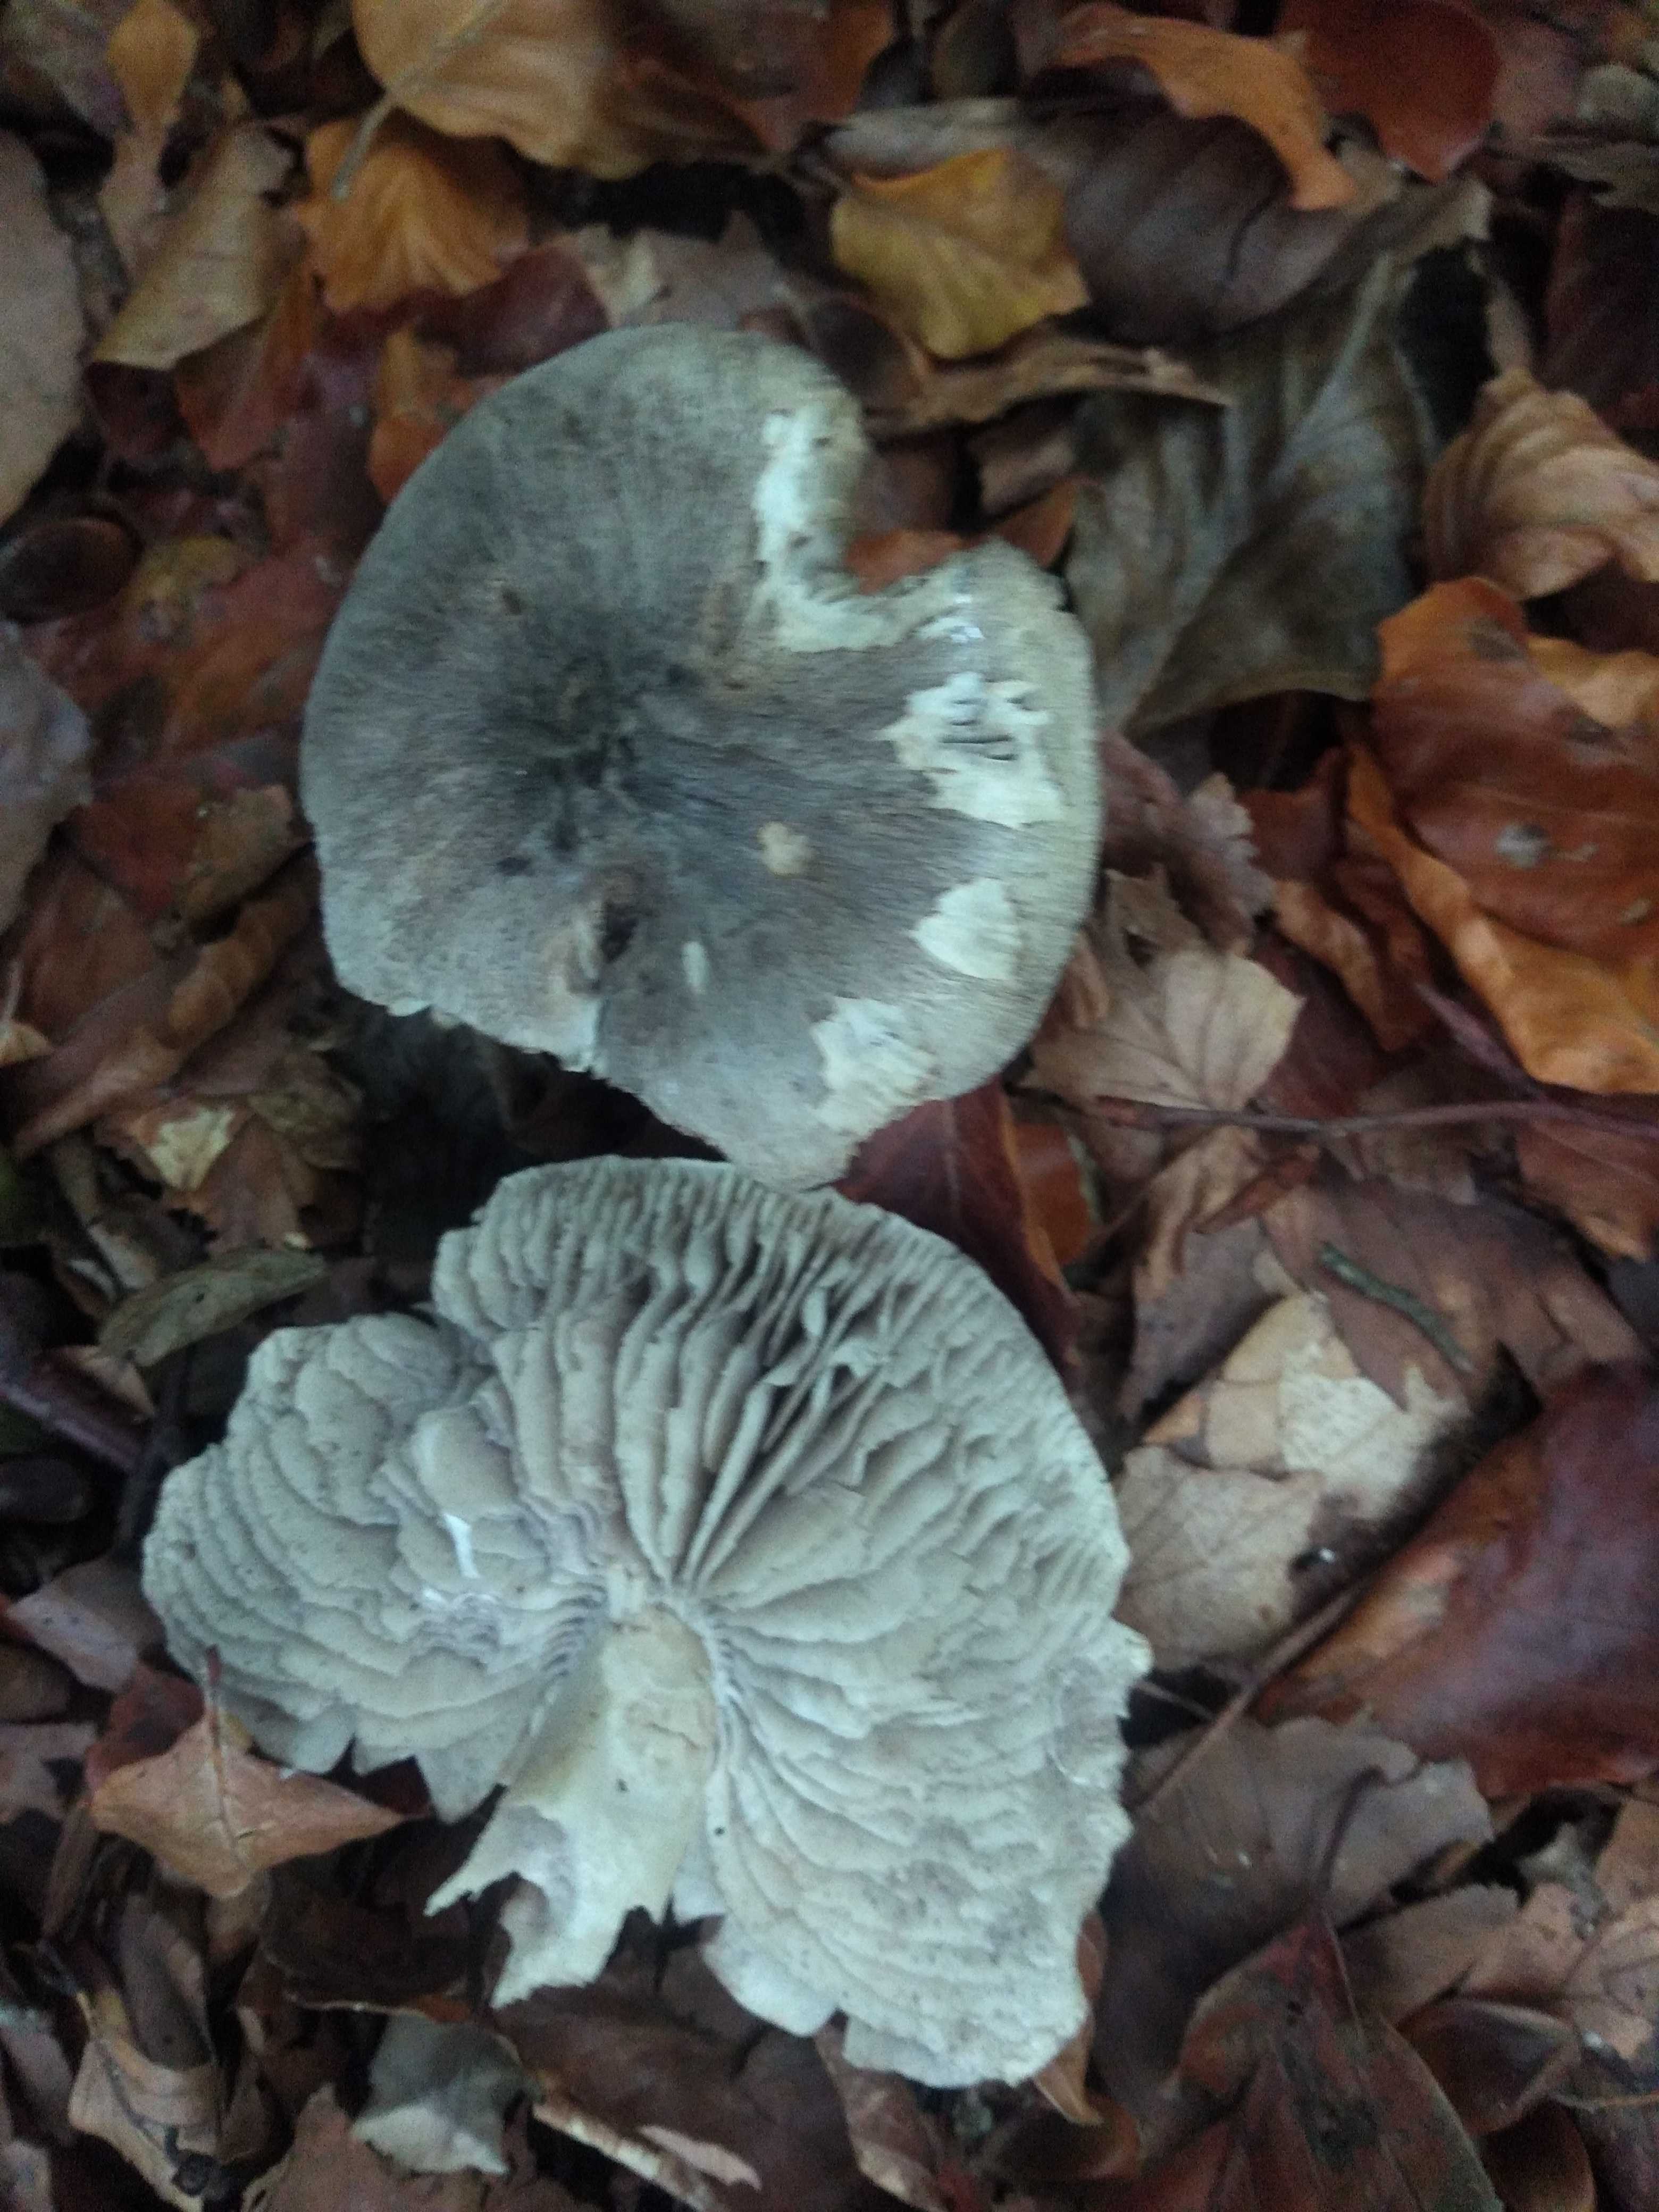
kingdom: Fungi
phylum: Basidiomycota
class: Agaricomycetes
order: Agaricales
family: Tricholomataceae
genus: Tricholoma
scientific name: Tricholoma
